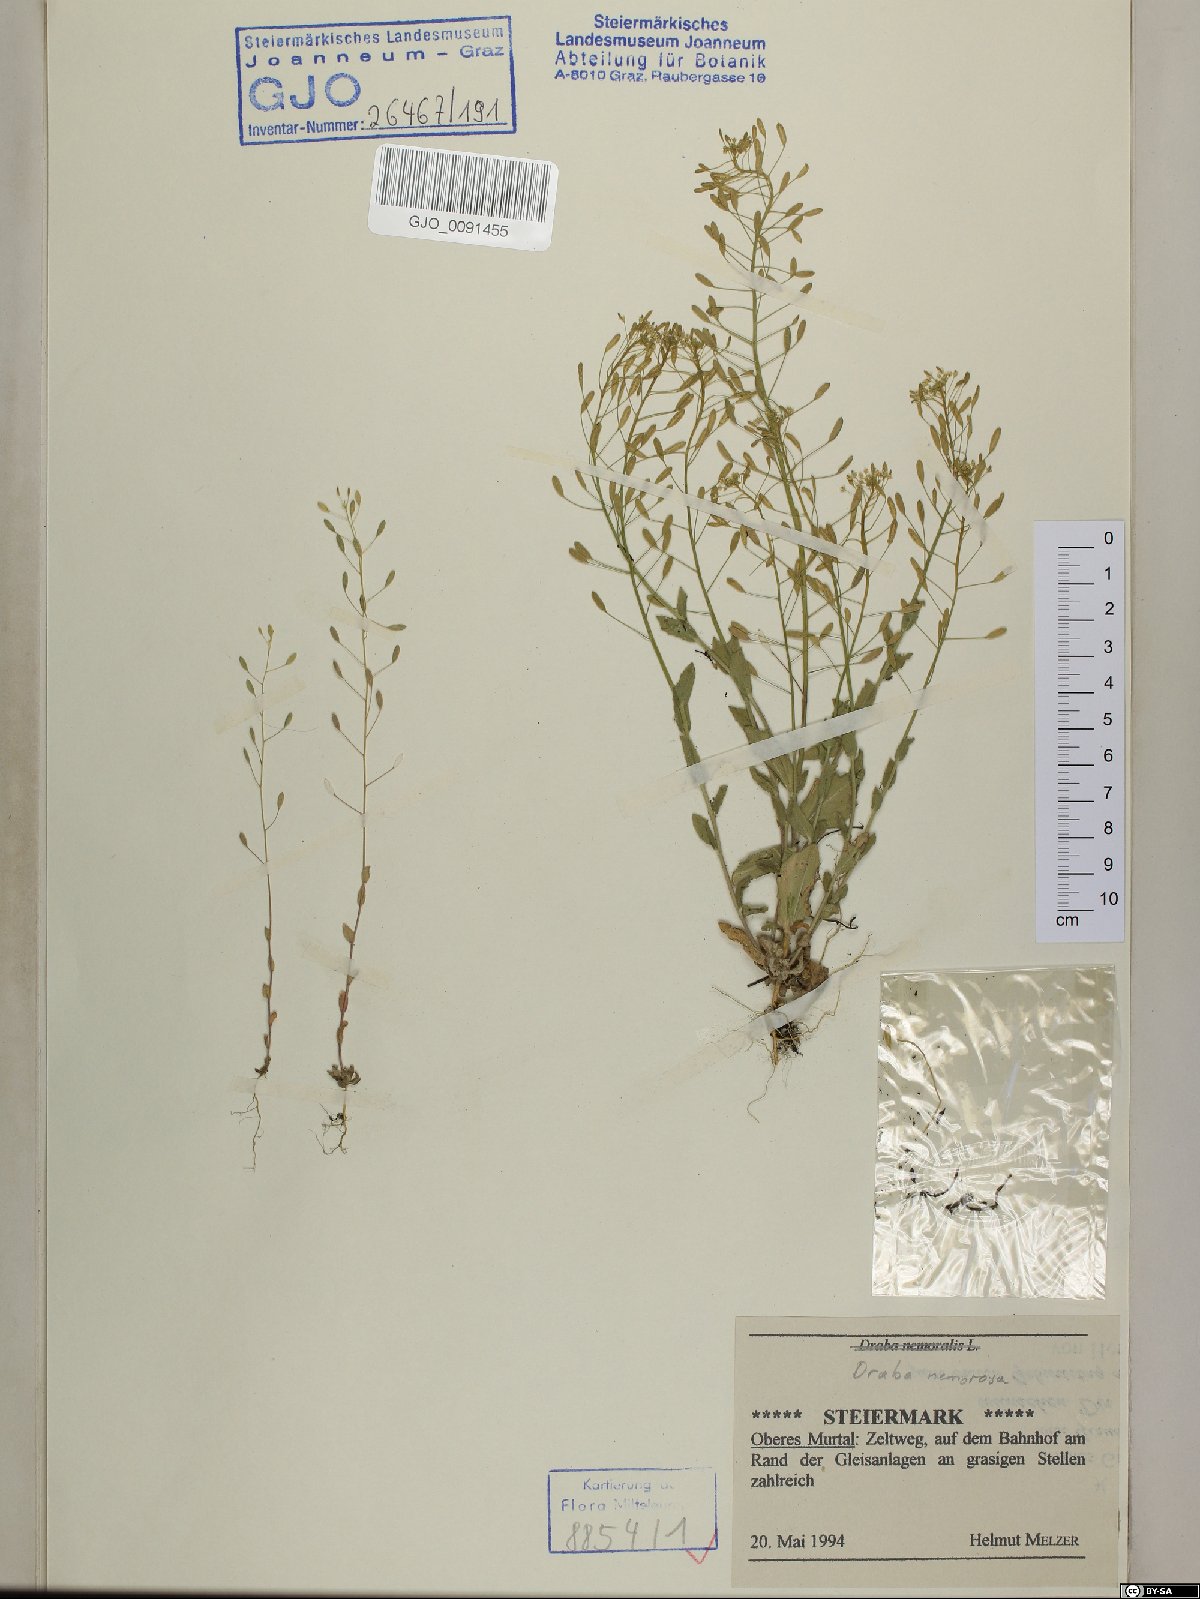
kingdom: Plantae
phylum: Tracheophyta
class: Magnoliopsida
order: Brassicales
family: Brassicaceae
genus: Draba
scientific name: Draba nemorosa
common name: Wood whitlow-grass
